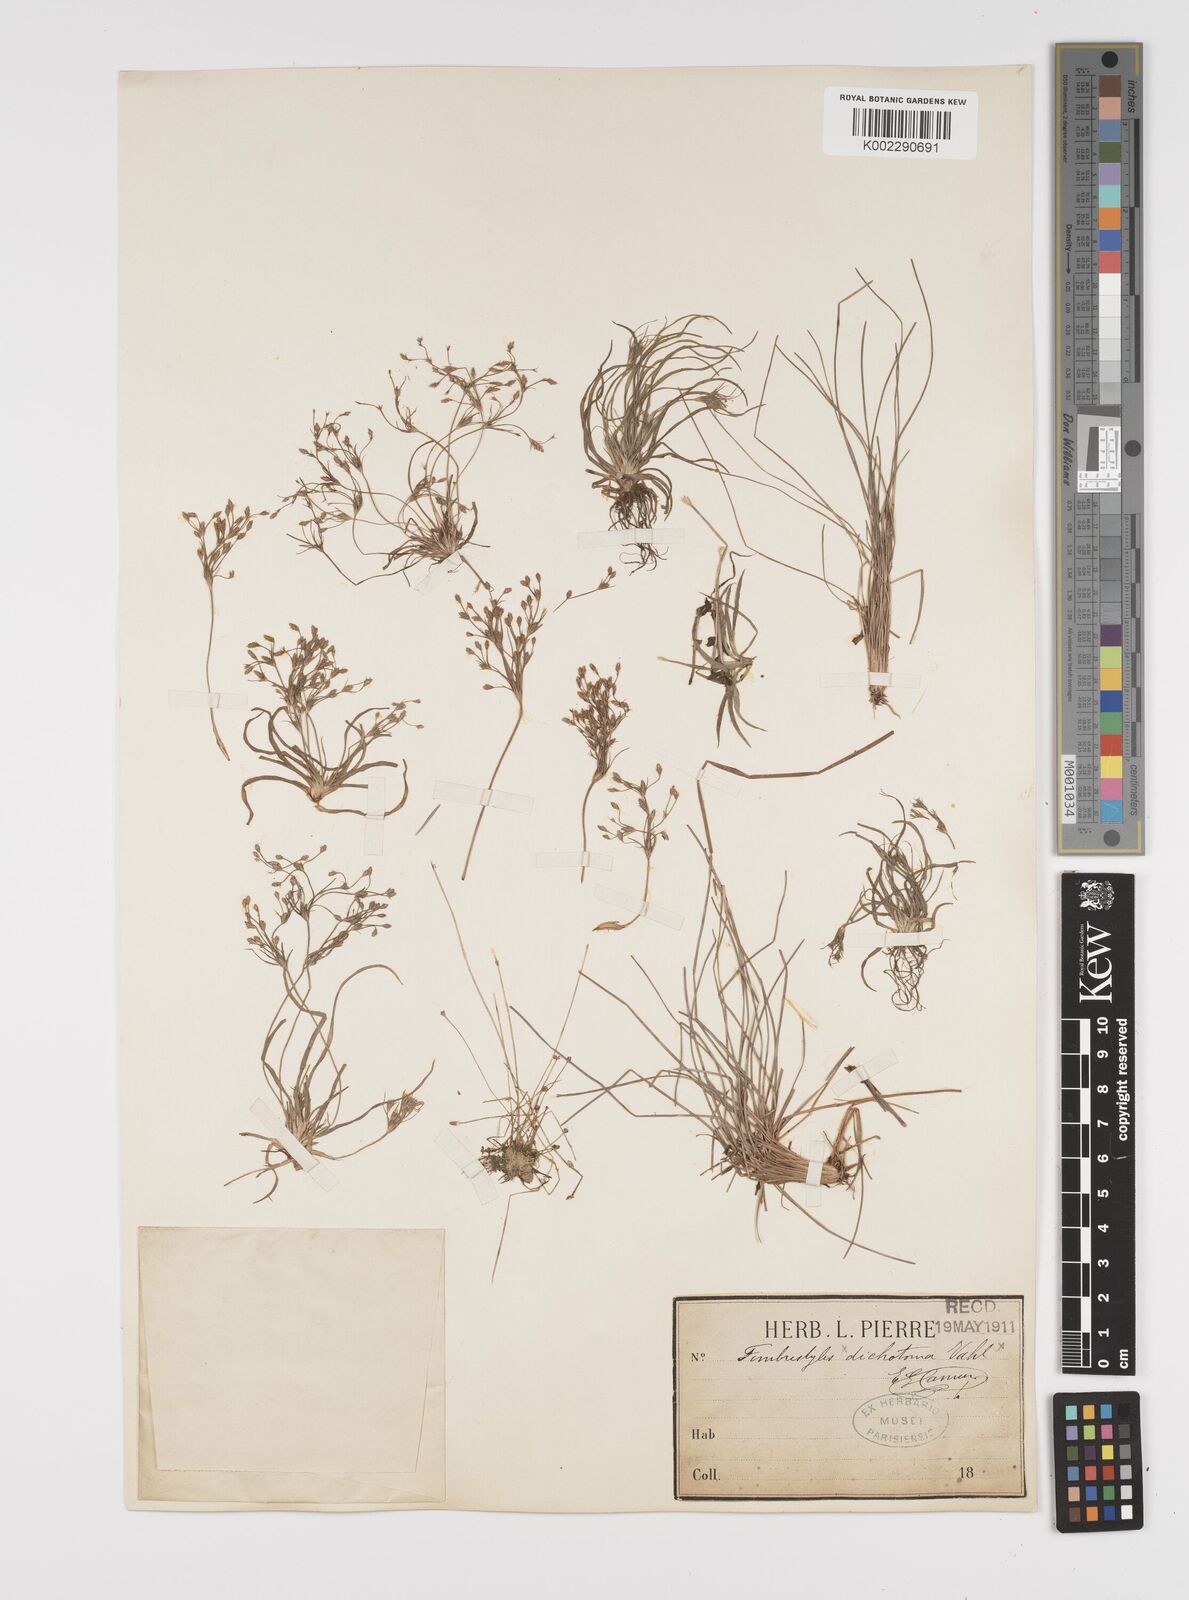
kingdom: Plantae
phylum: Tracheophyta
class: Liliopsida
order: Poales
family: Cyperaceae
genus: Fimbristylis
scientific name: Fimbristylis
